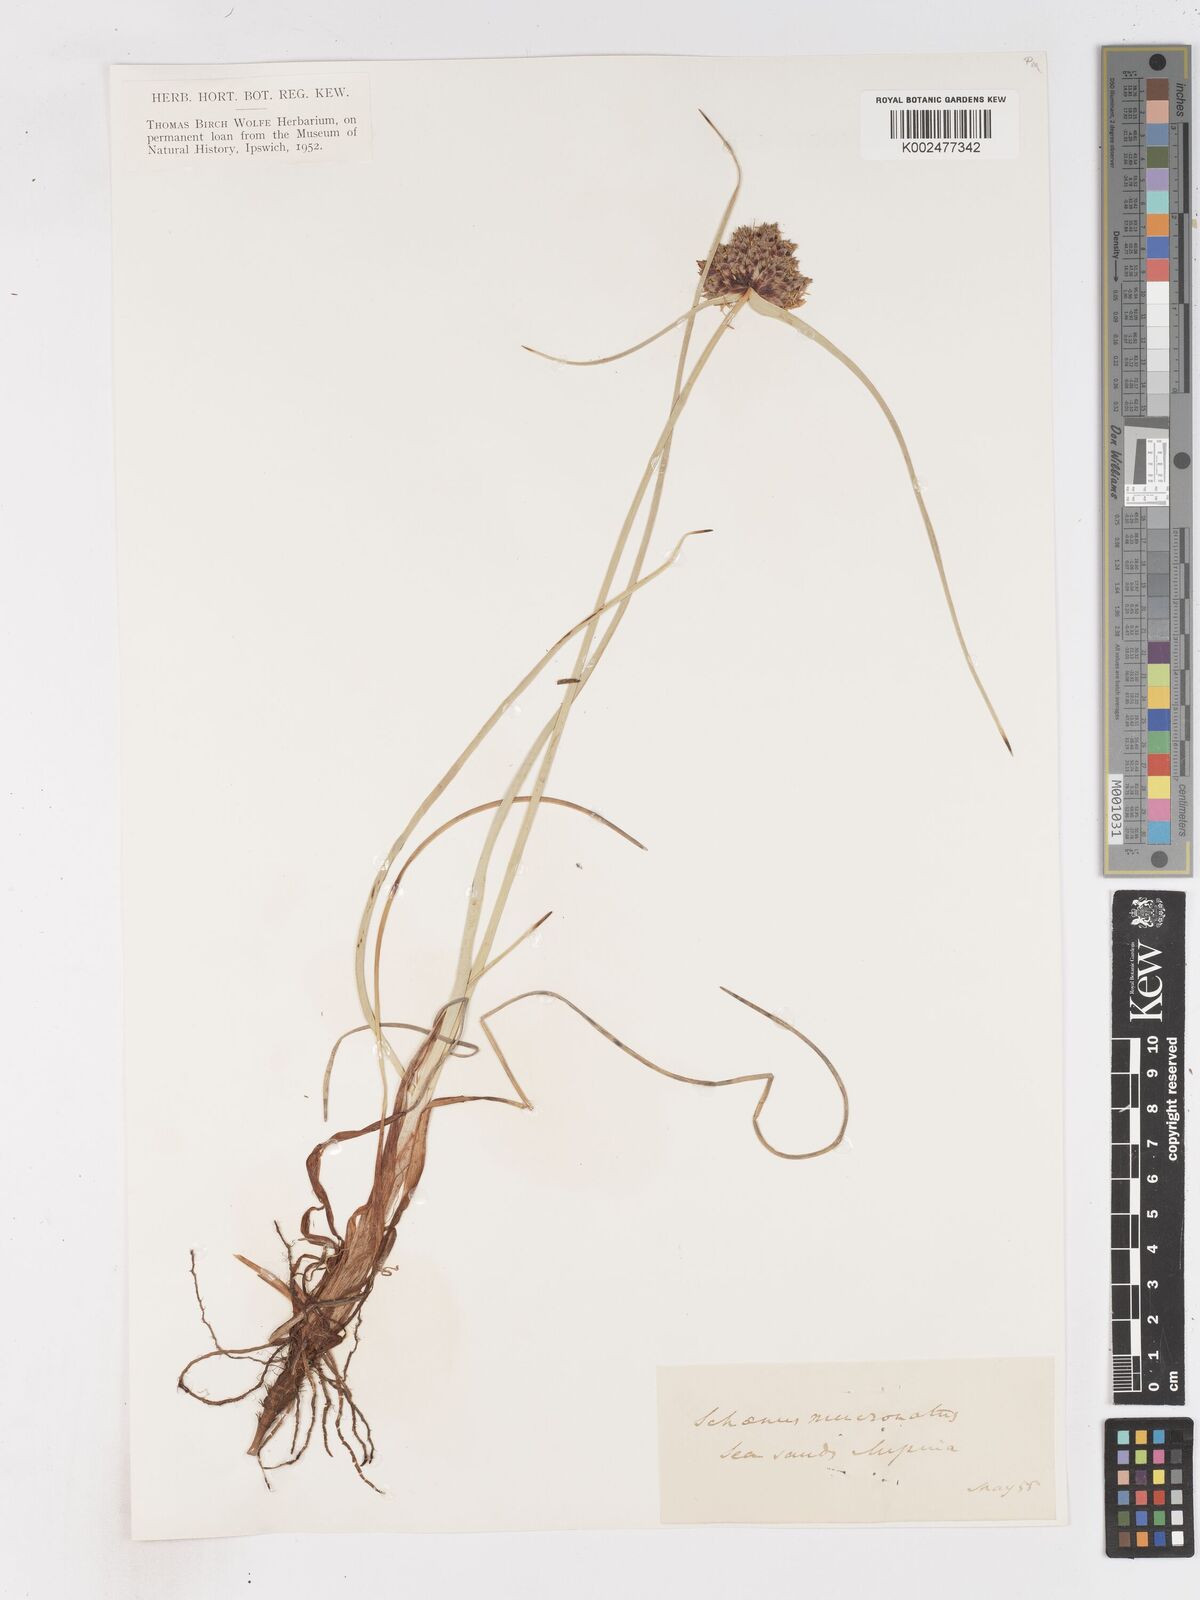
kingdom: Plantae
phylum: Tracheophyta
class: Liliopsida
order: Poales
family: Cyperaceae
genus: Cyperus
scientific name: Cyperus capitatus
